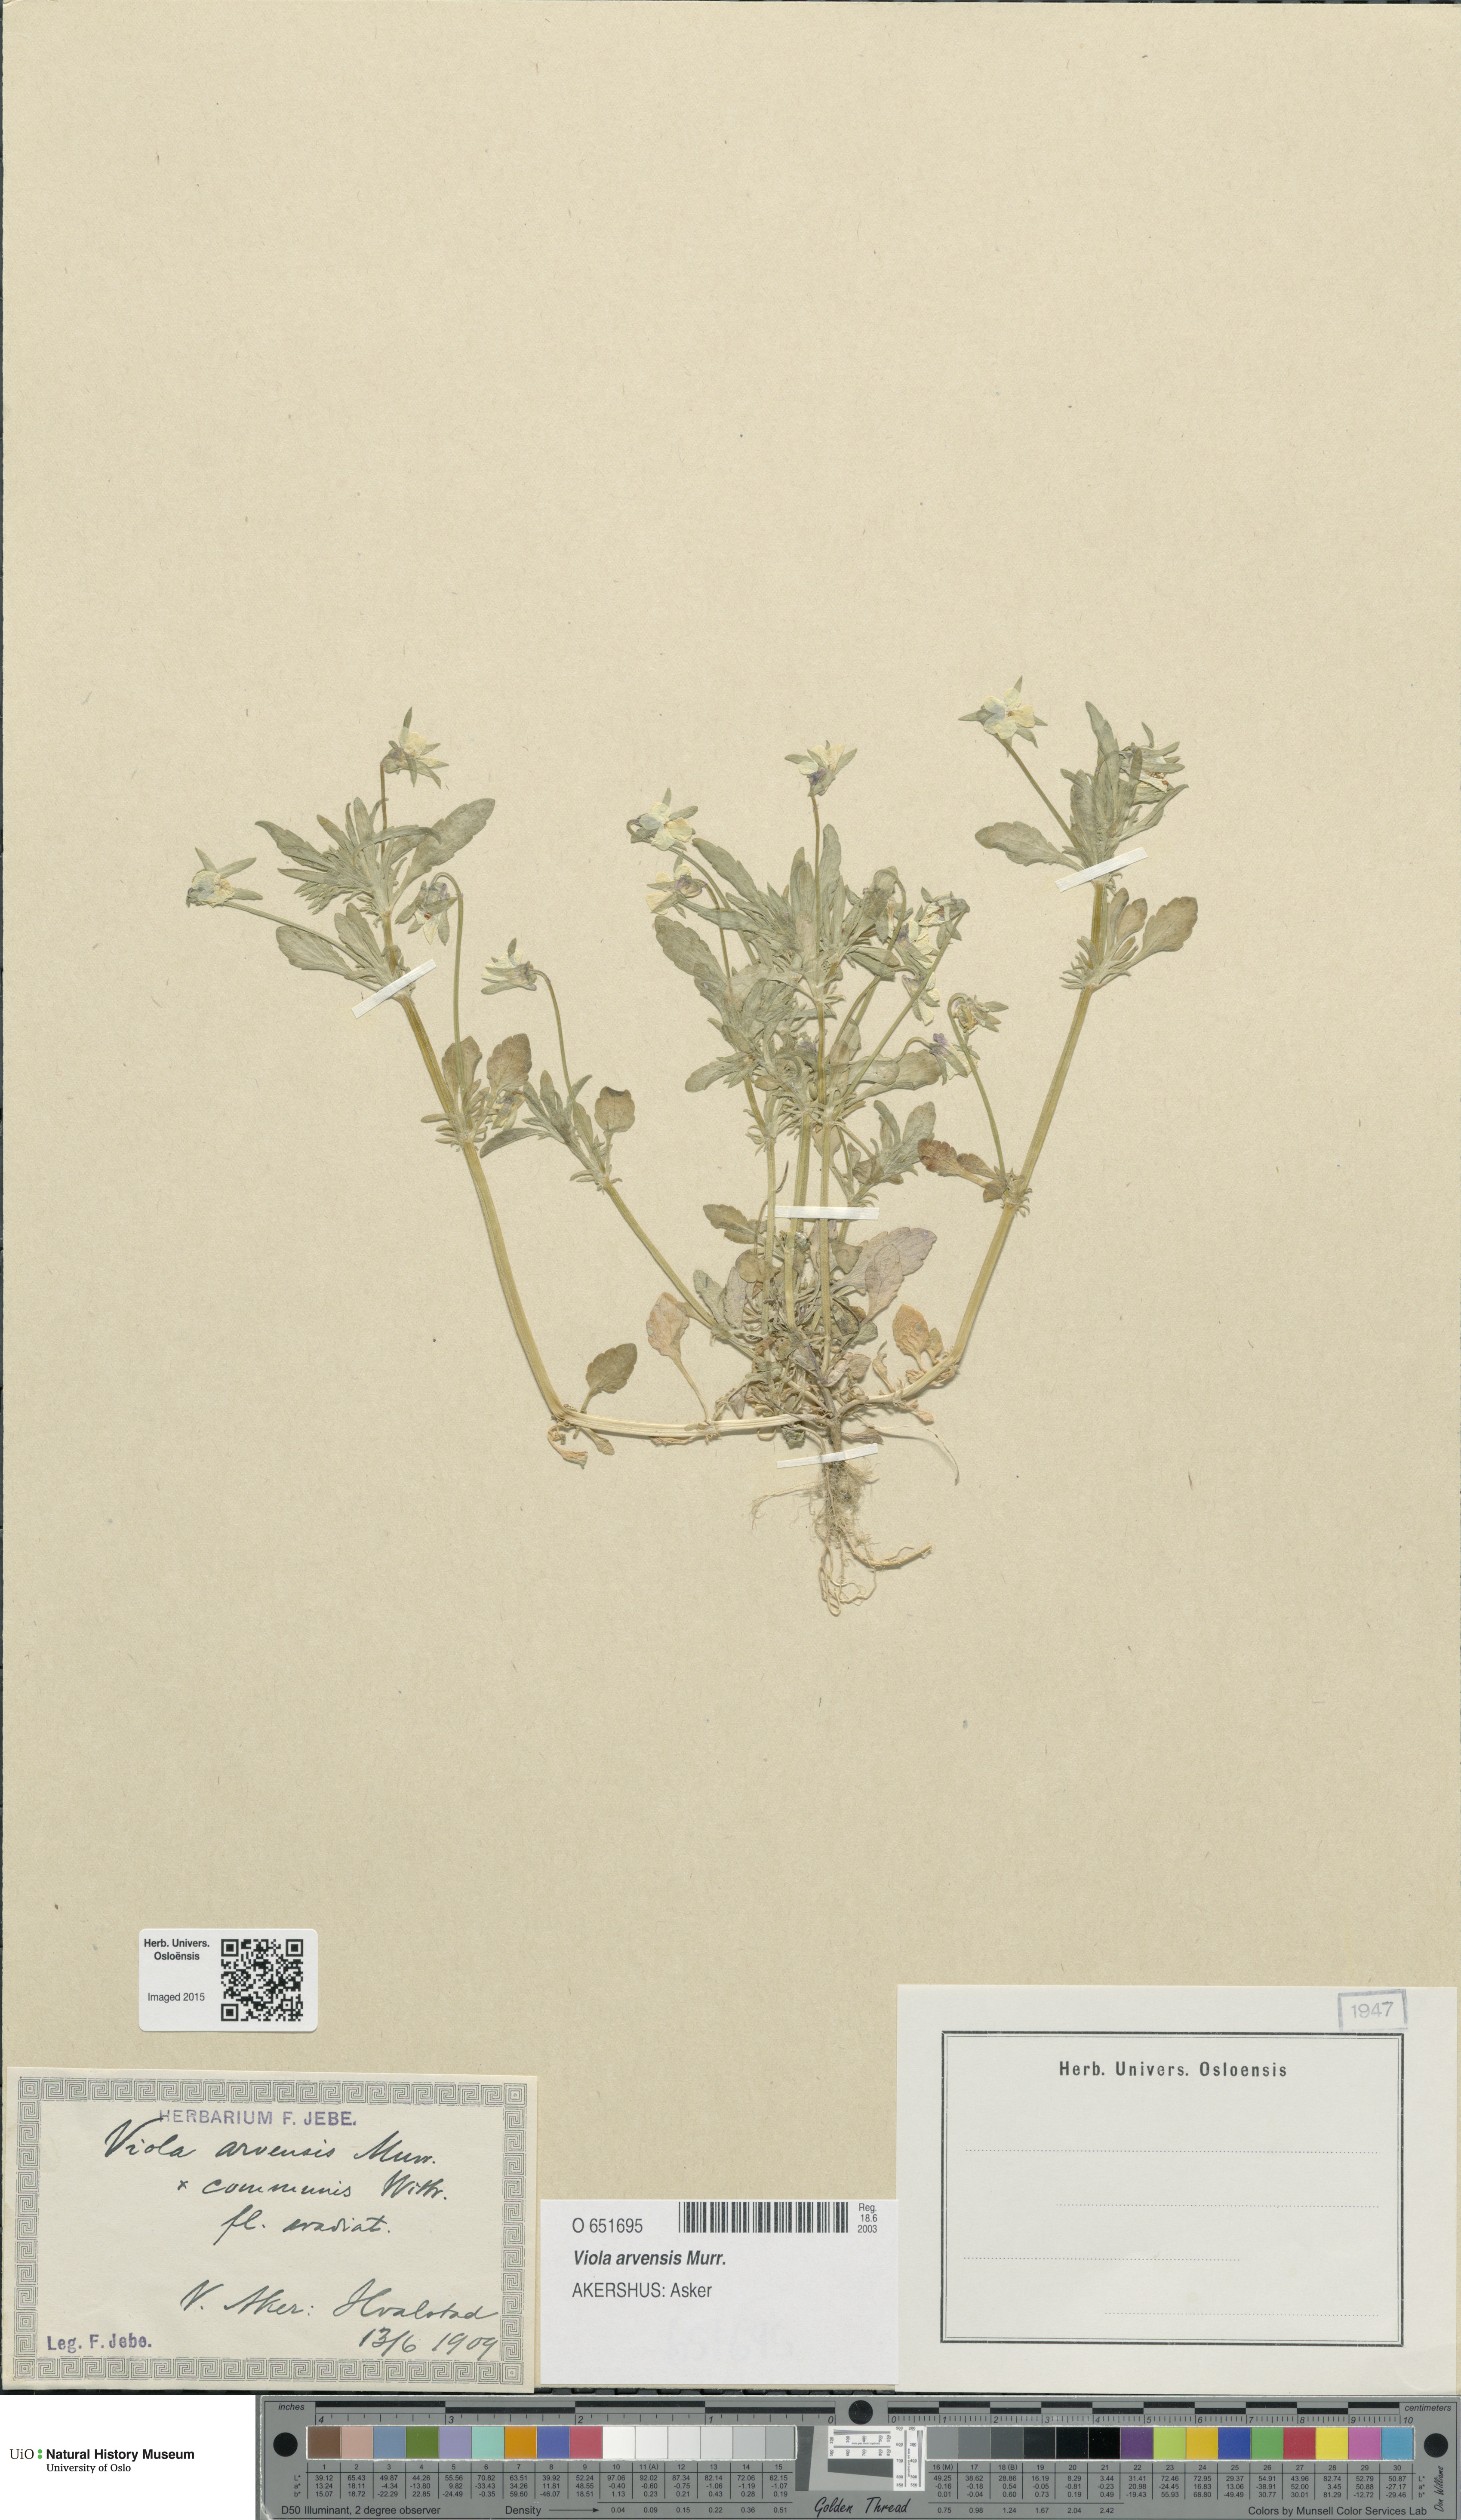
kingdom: Plantae
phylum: Tracheophyta
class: Magnoliopsida
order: Malpighiales
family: Violaceae
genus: Viola
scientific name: Viola arvensis
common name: Field pansy
